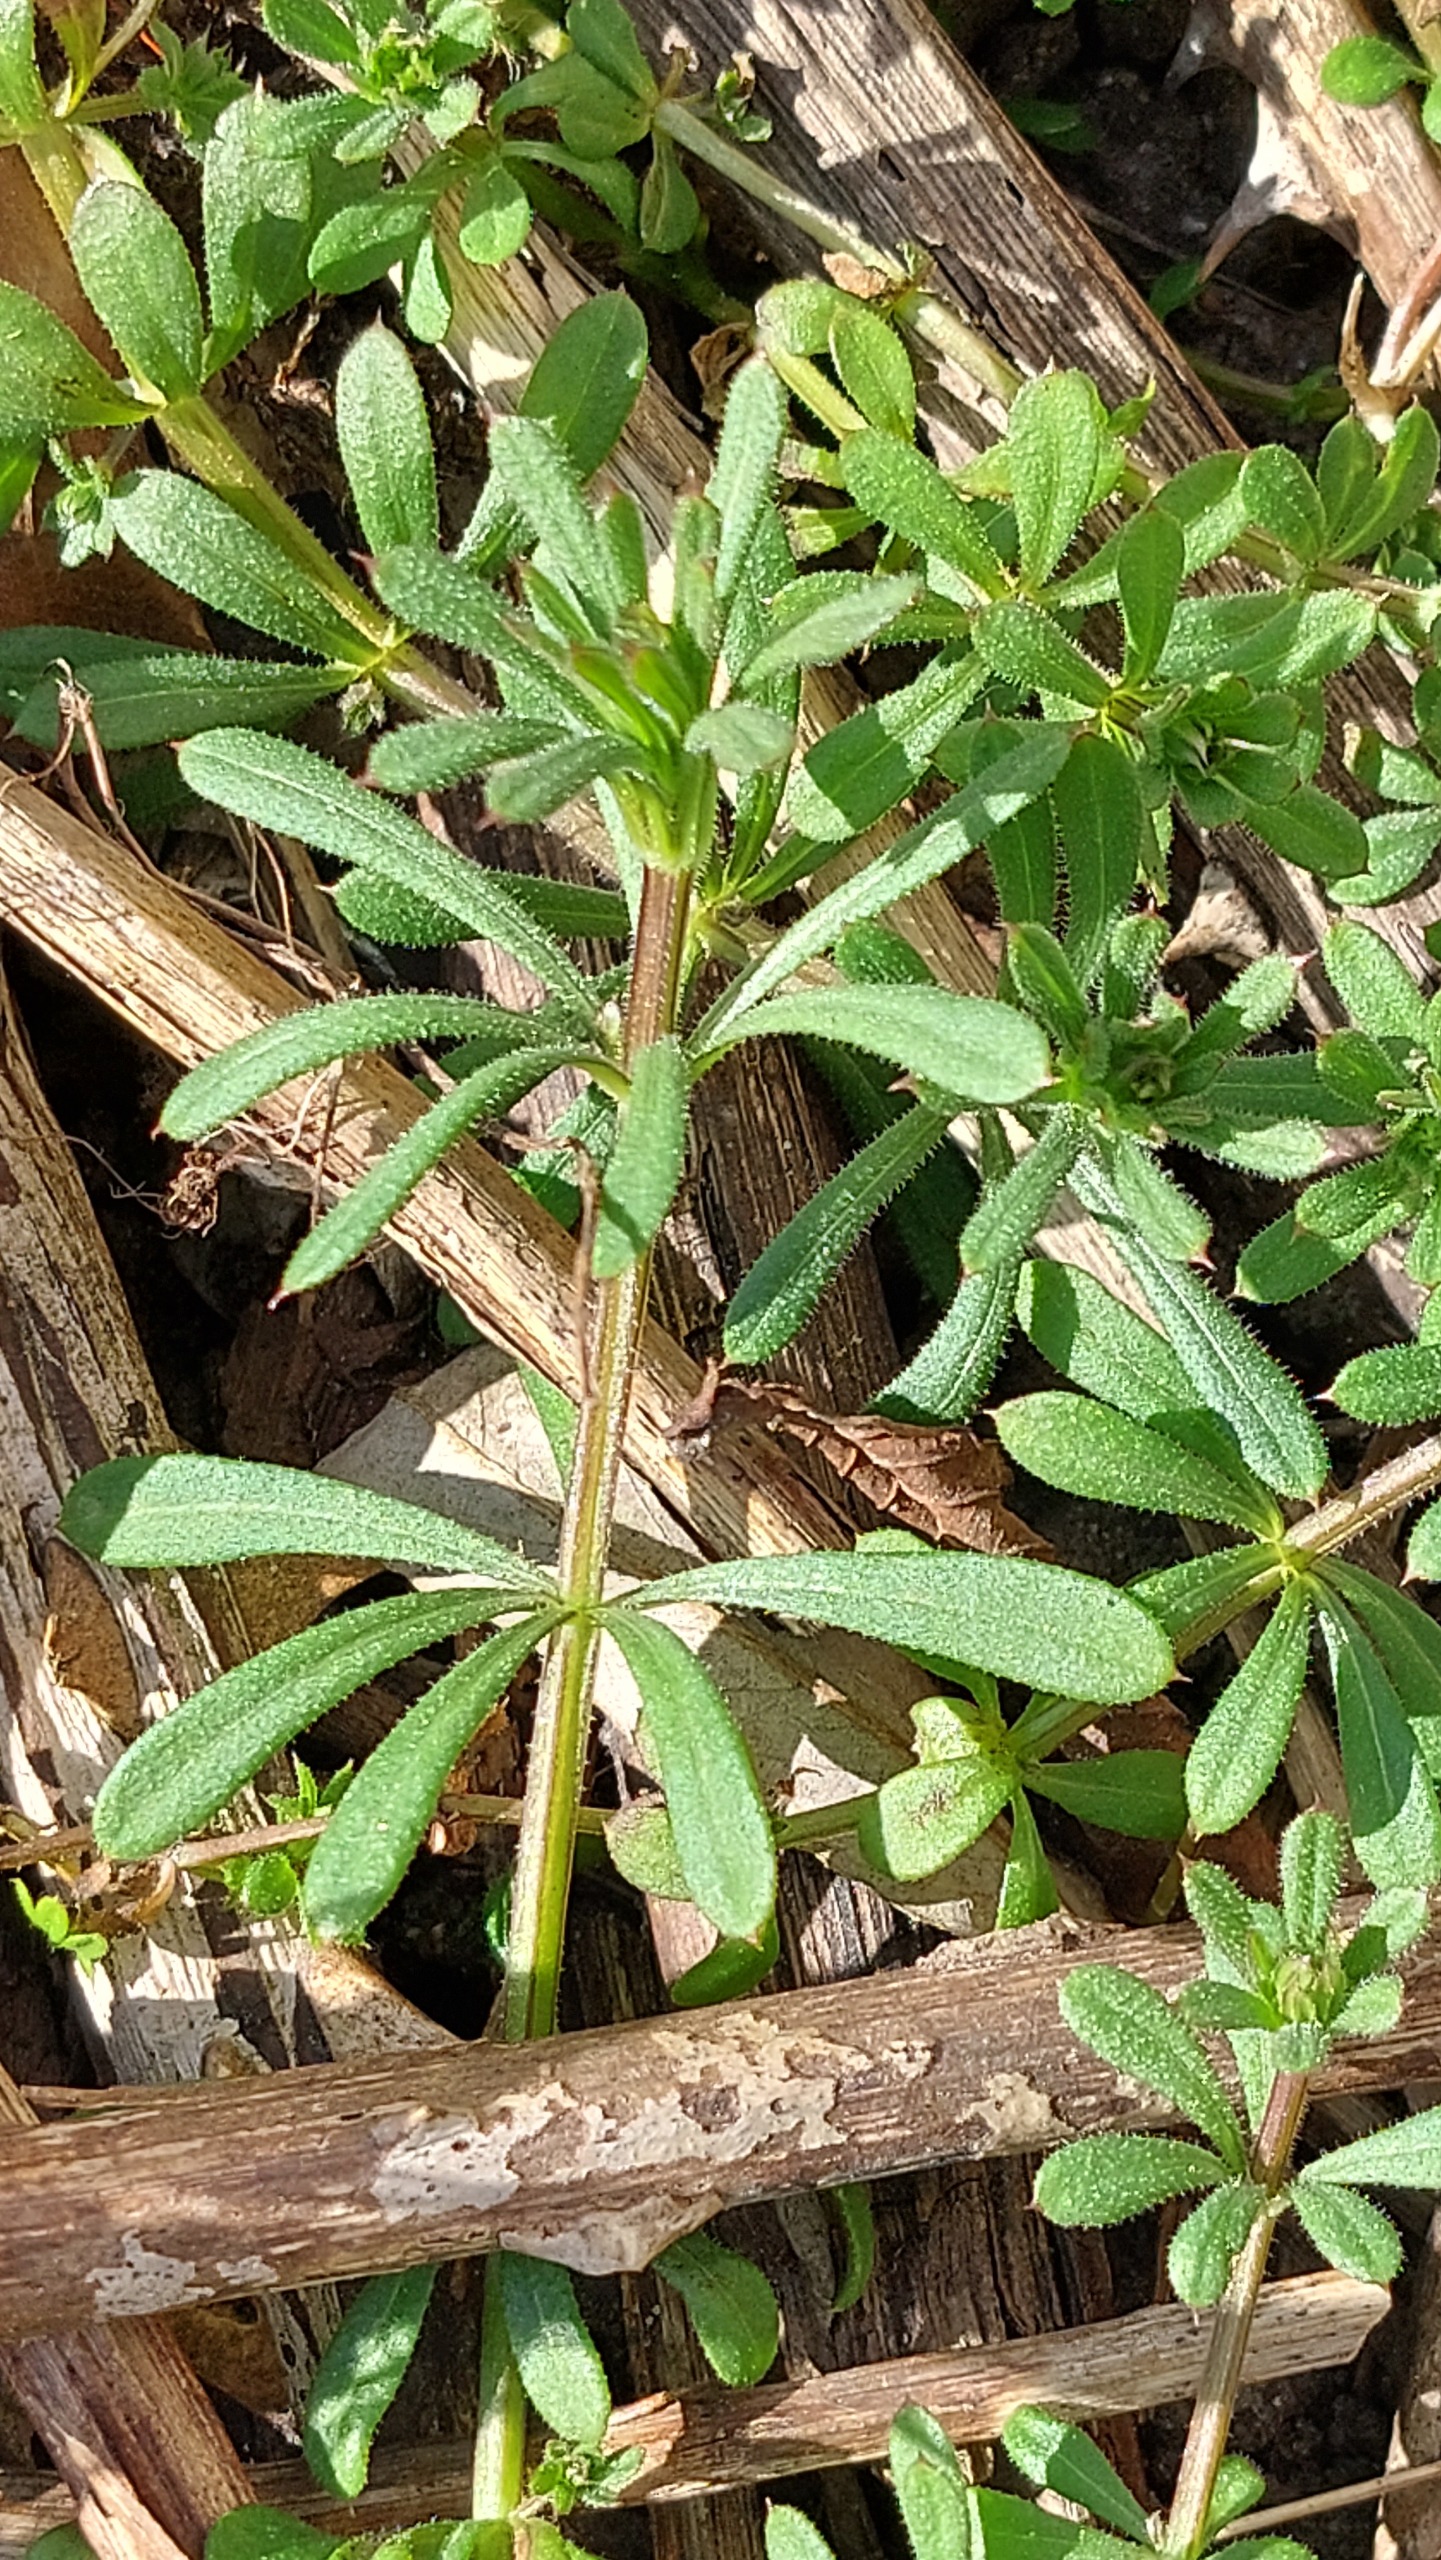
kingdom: Plantae
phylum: Tracheophyta
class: Magnoliopsida
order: Gentianales
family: Rubiaceae
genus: Galium
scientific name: Galium aparine
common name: Burre-snerre
